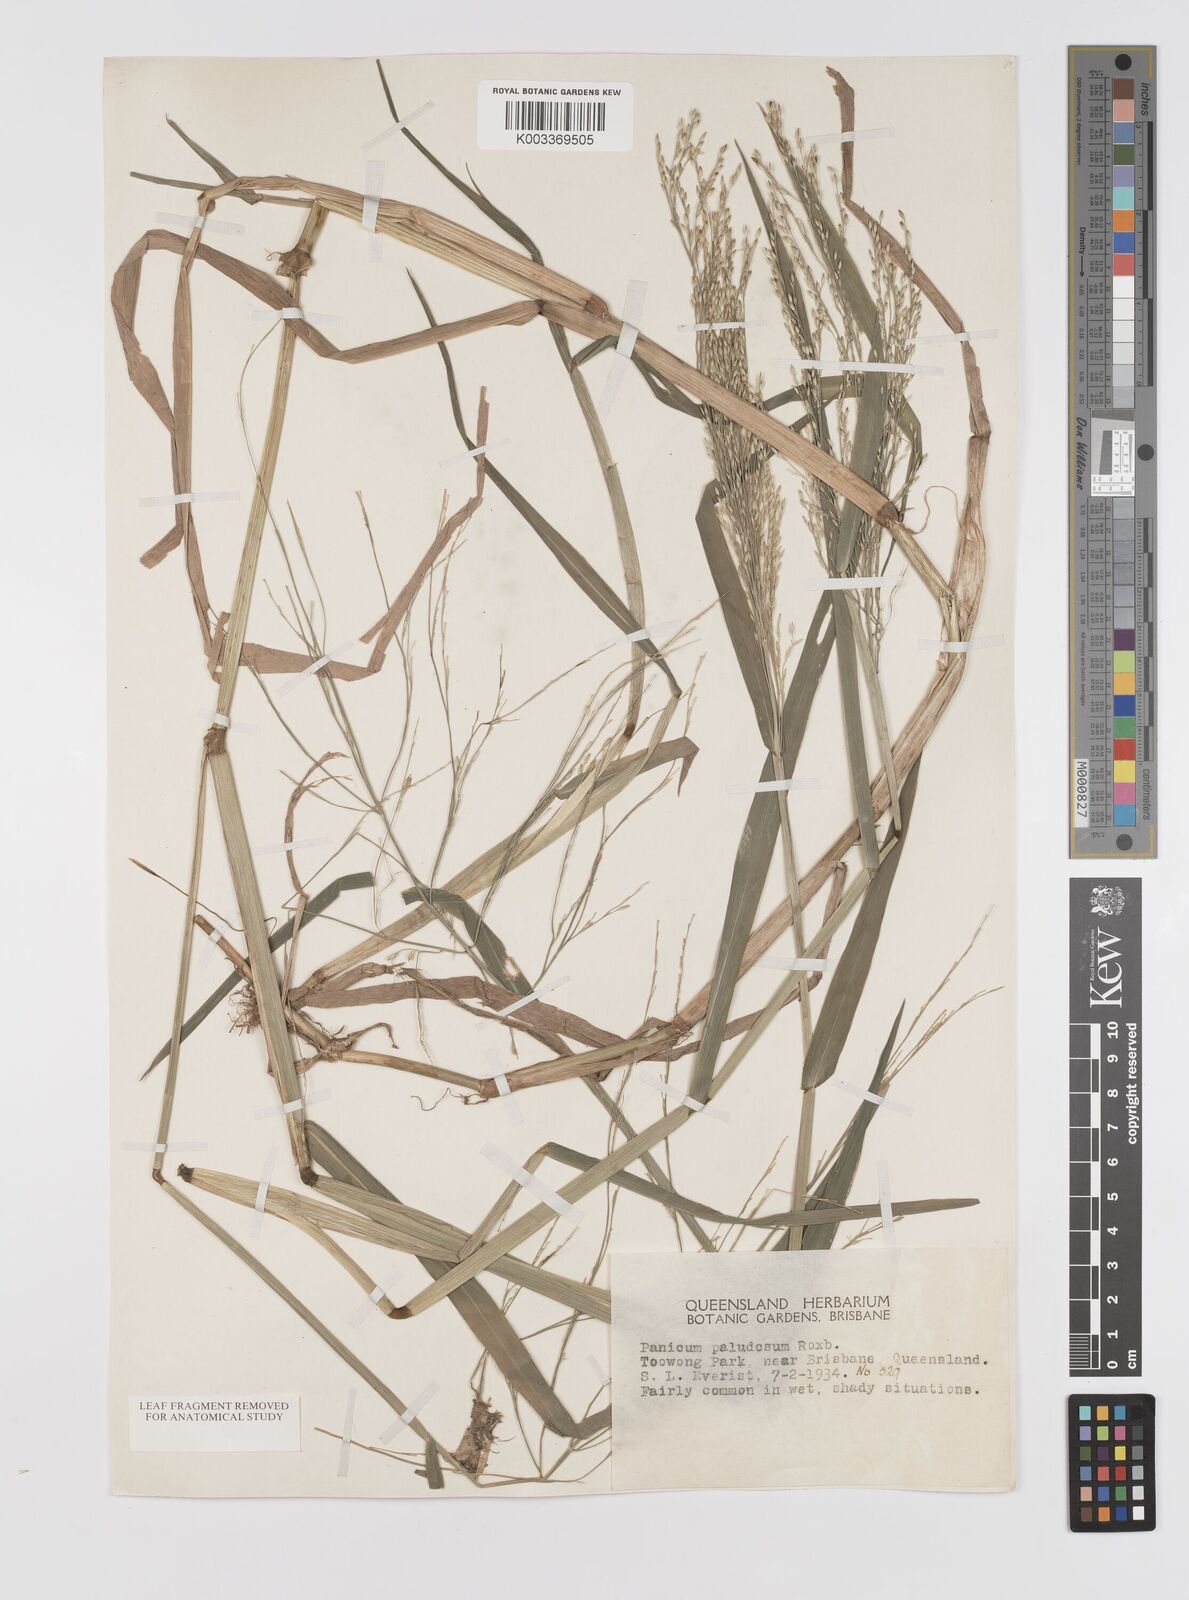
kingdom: Plantae
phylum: Tracheophyta
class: Liliopsida
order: Poales
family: Poaceae
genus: Louisiella
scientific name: Louisiella paludosa
